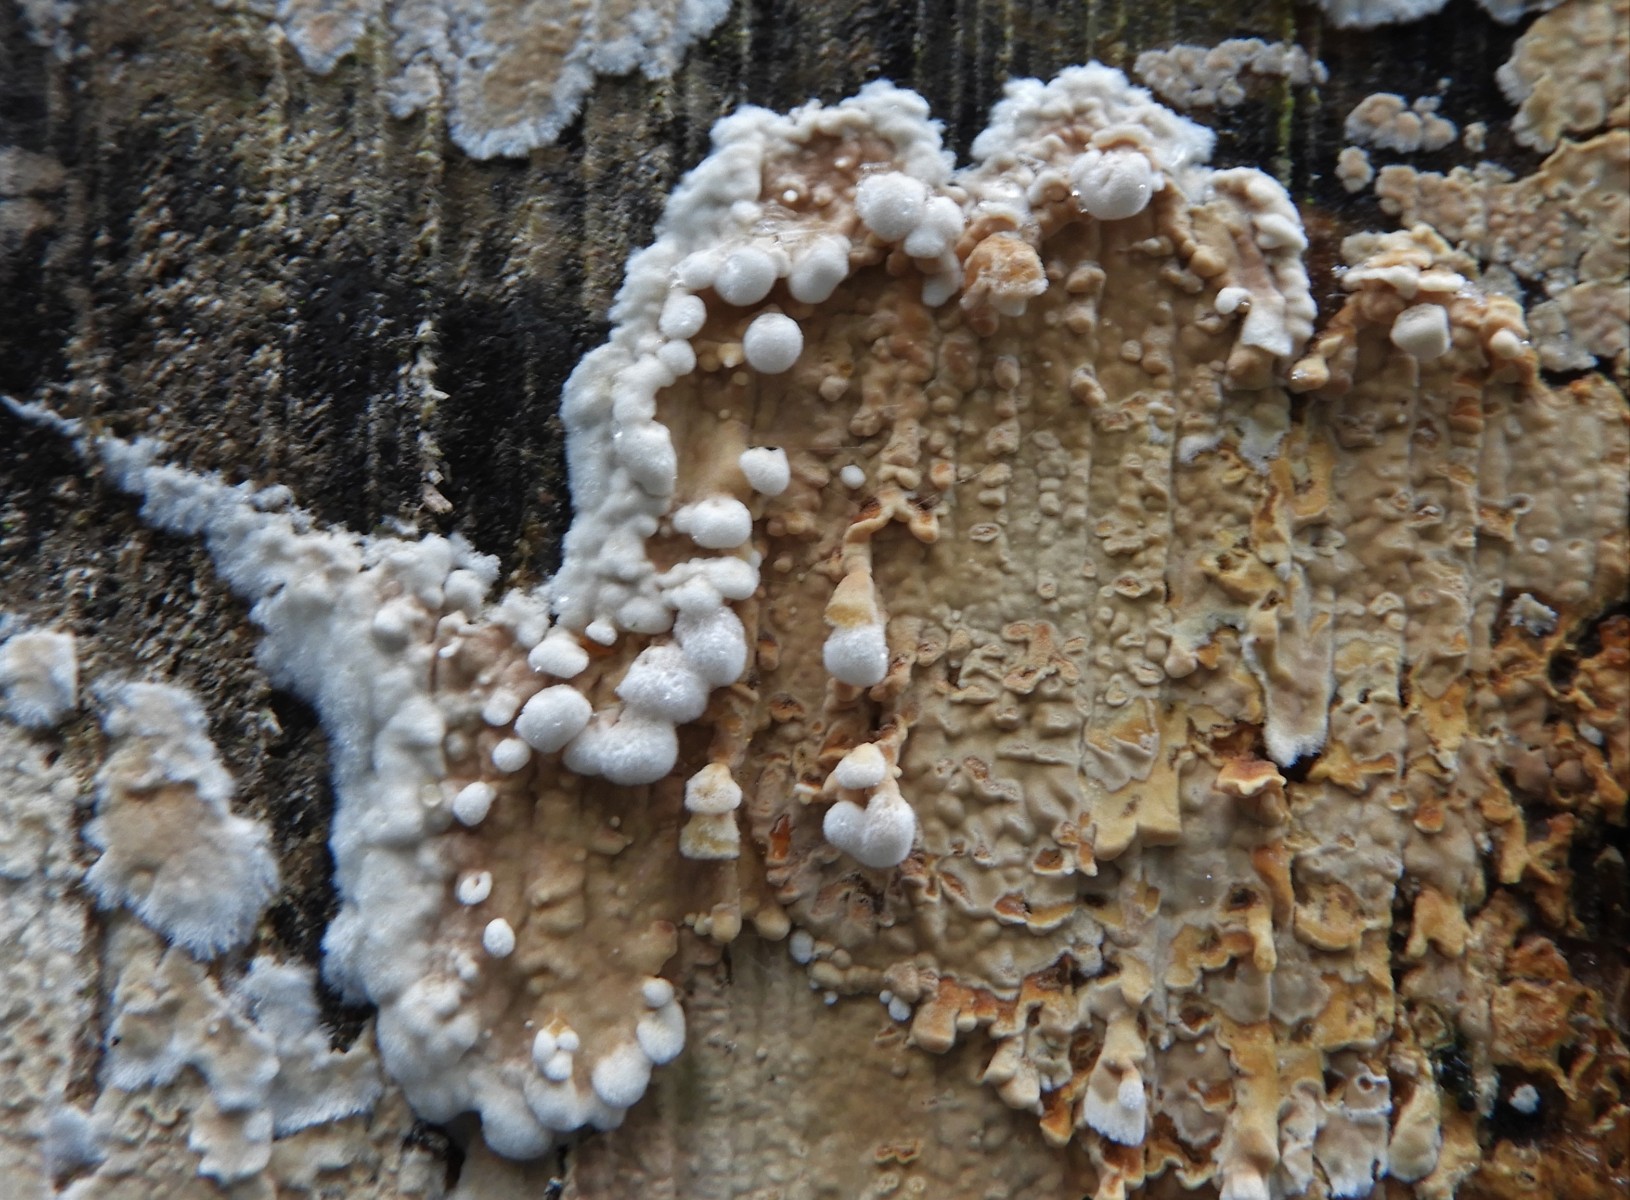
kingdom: Fungi
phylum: Basidiomycota
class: Agaricomycetes
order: Agaricales
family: Physalacriaceae
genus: Cylindrobasidium
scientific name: Cylindrobasidium evolvens
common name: sprækkehinde
